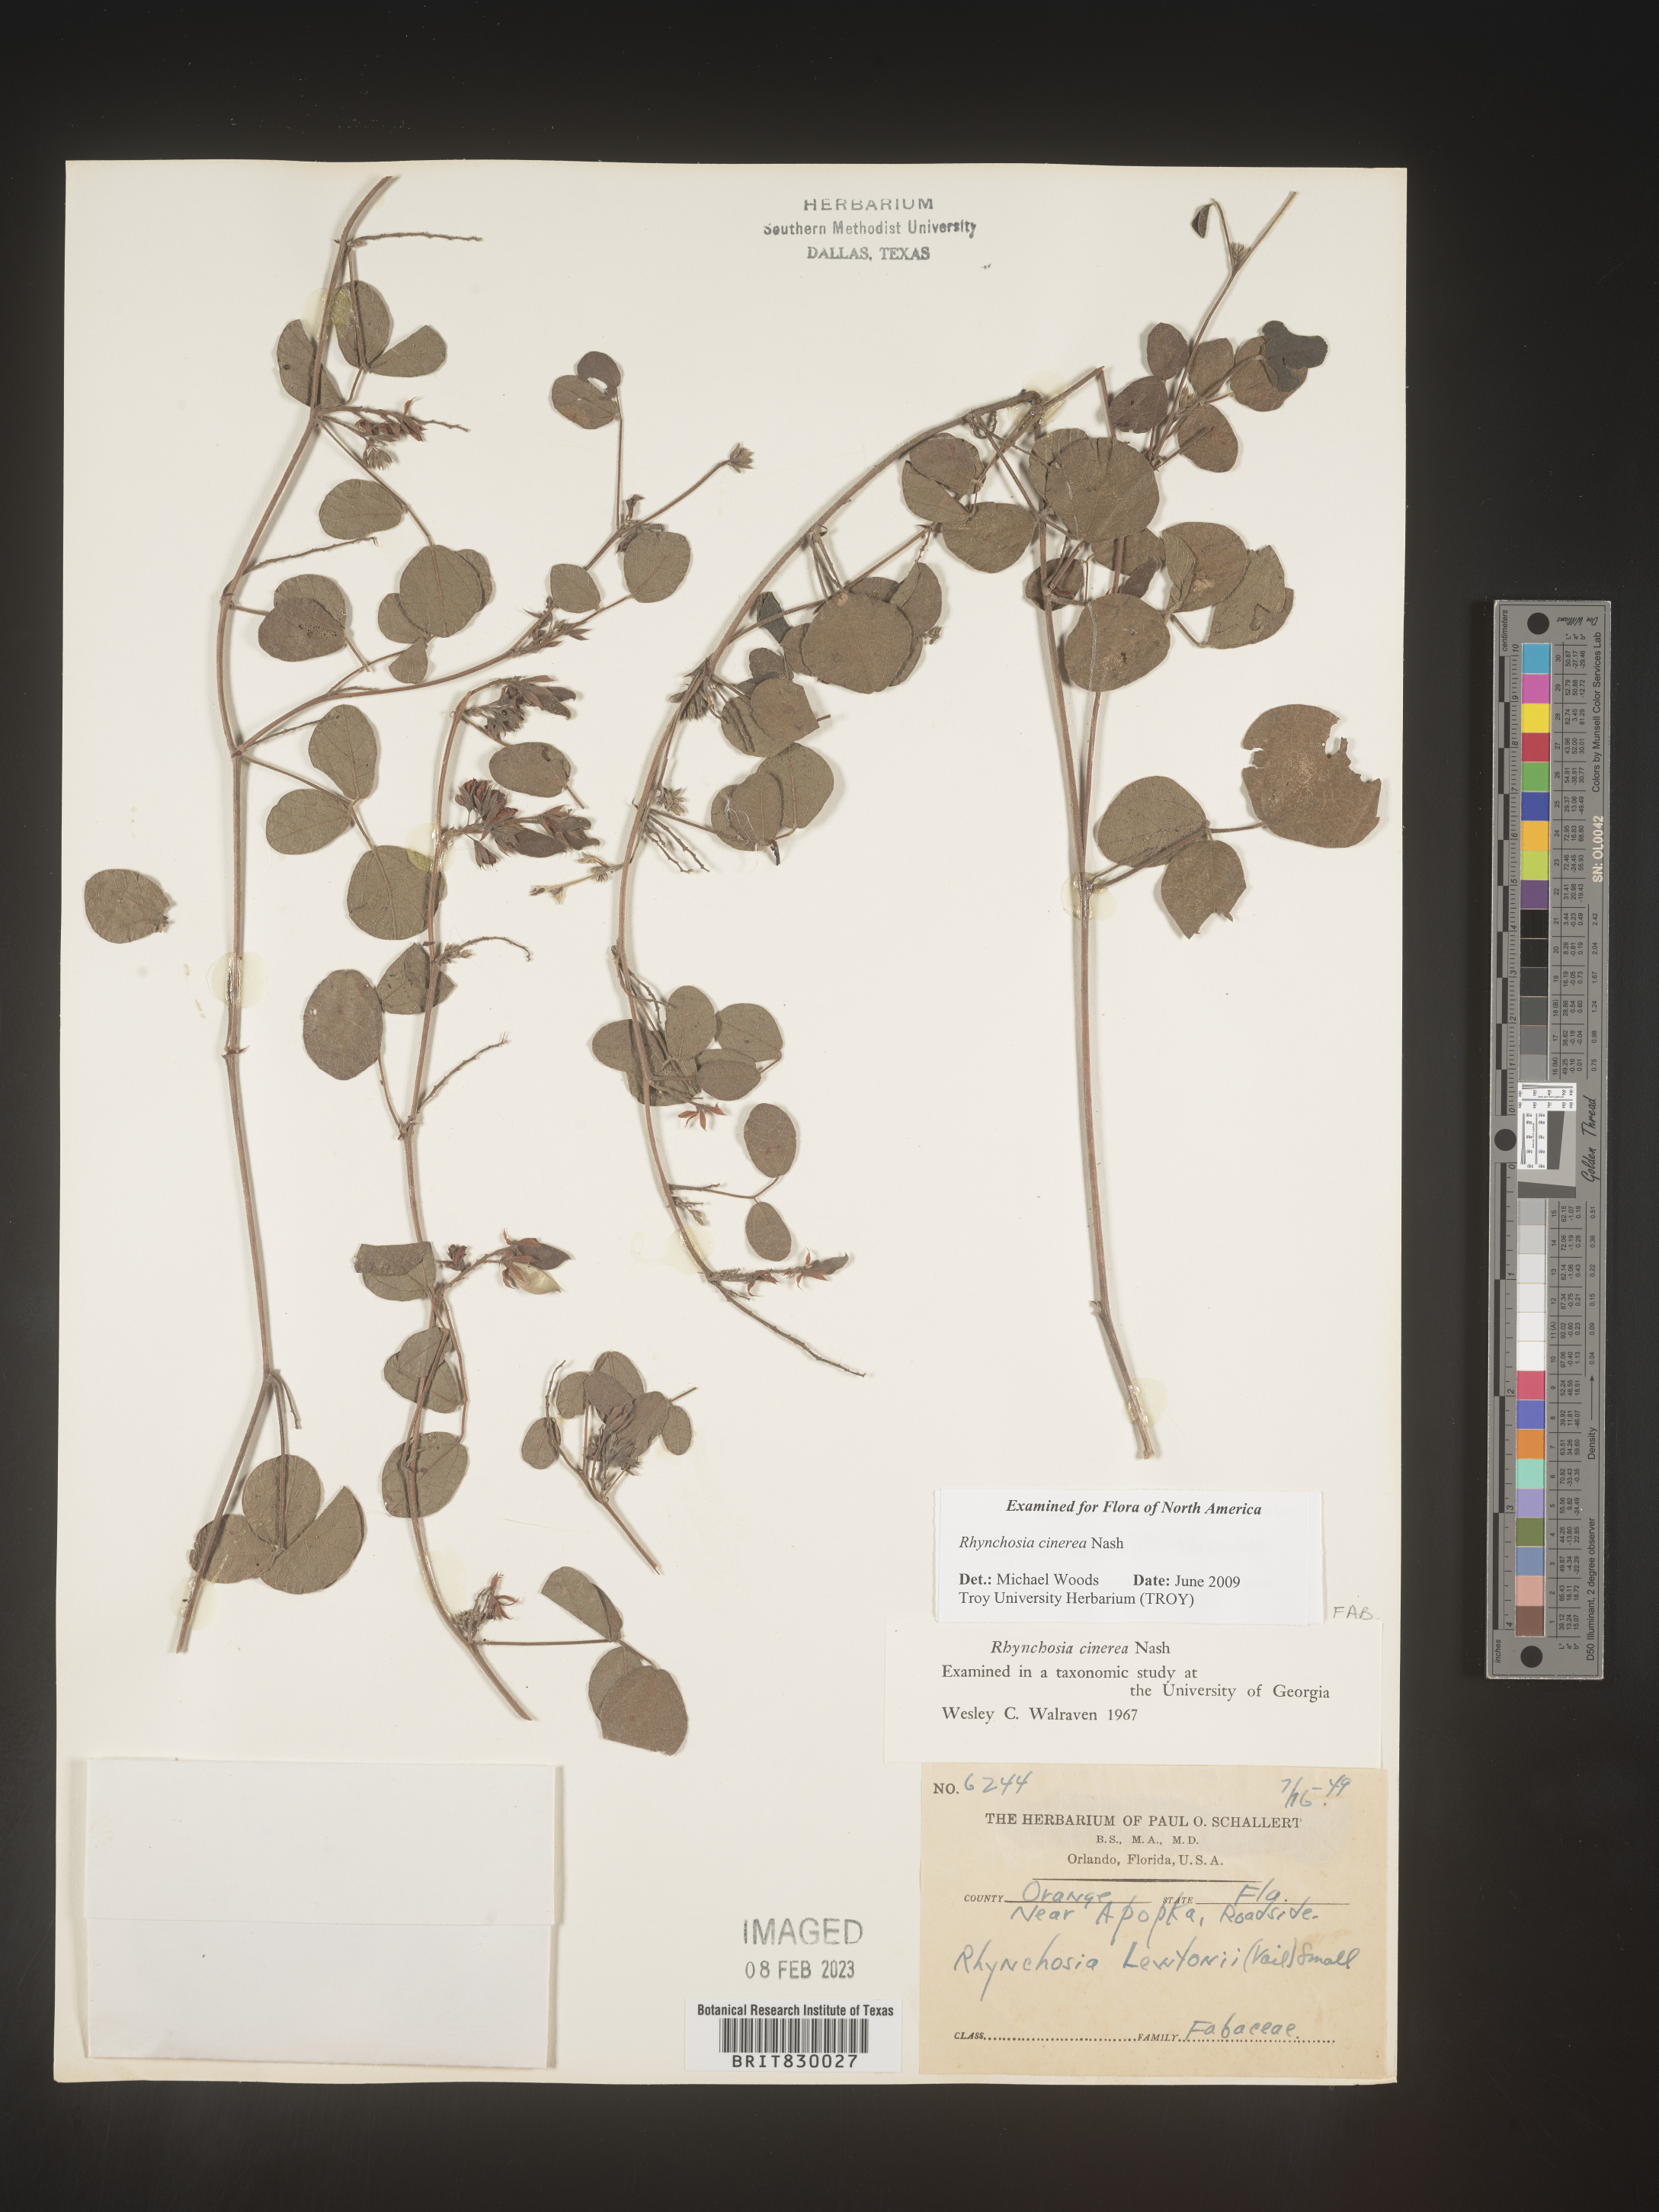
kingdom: Plantae
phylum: Tracheophyta
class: Magnoliopsida
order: Fabales
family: Fabaceae
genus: Rhynchosia
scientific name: Rhynchosia
